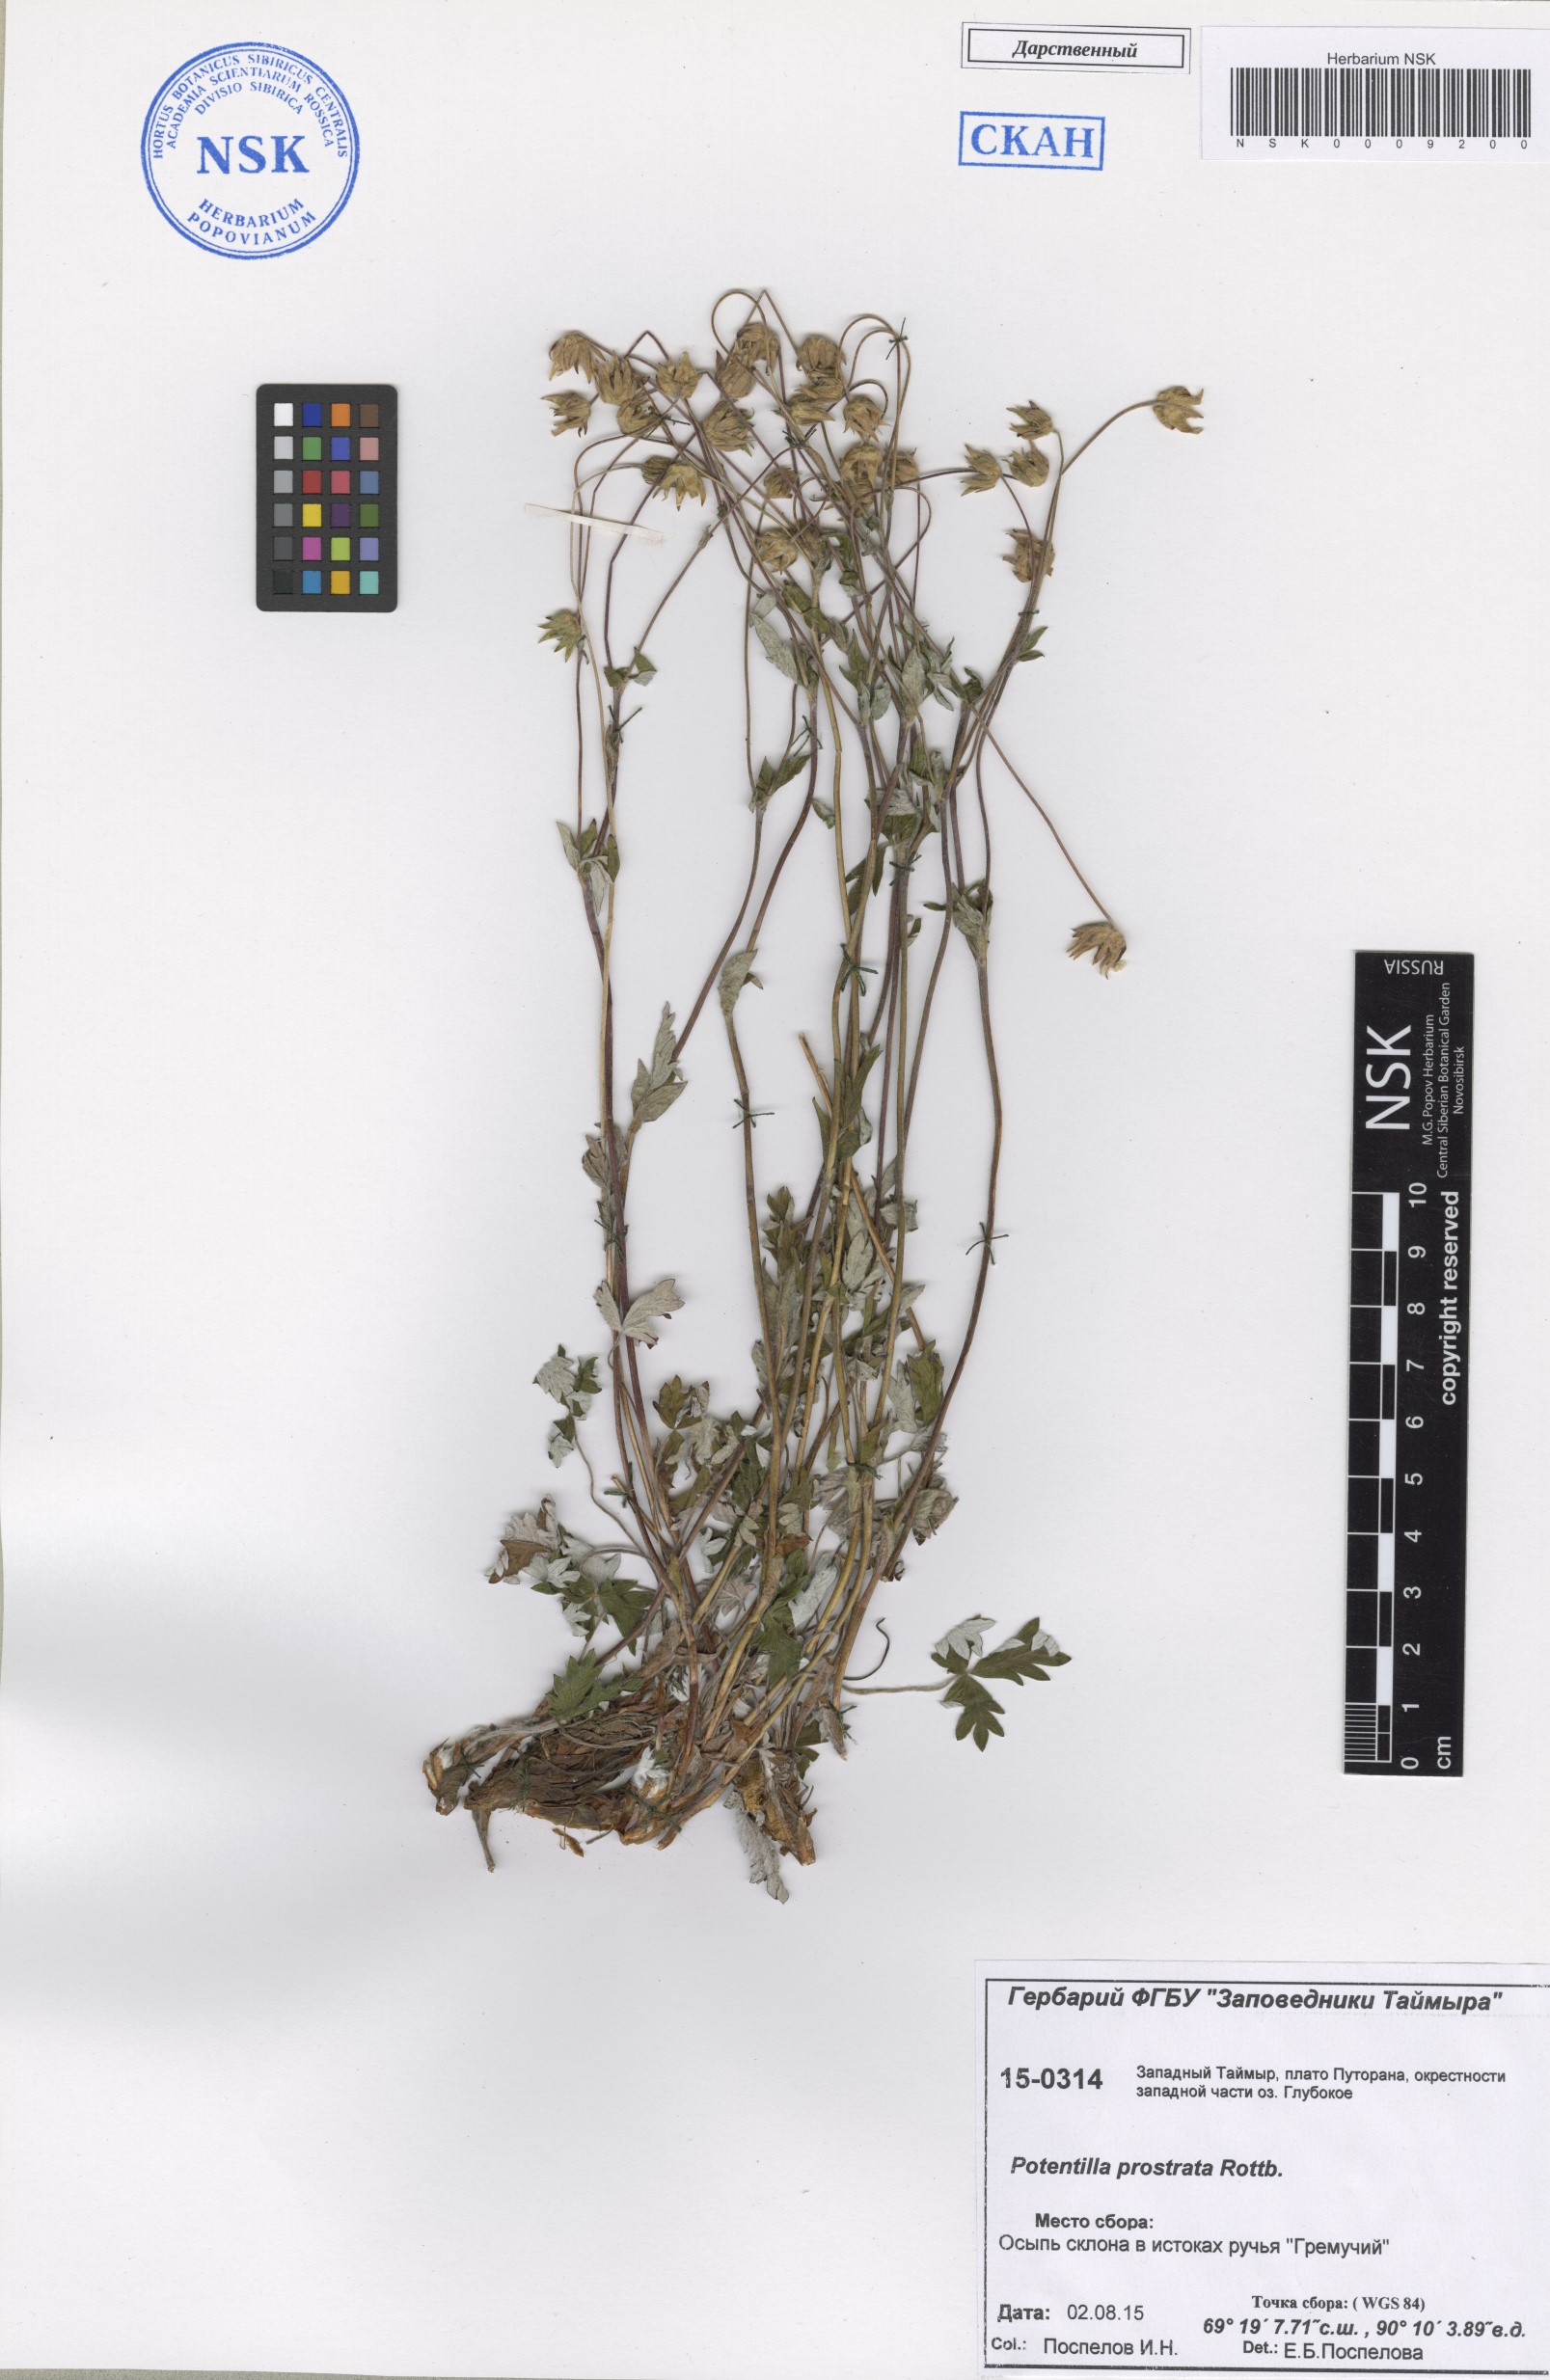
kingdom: Plantae
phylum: Tracheophyta
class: Magnoliopsida
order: Rosales
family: Rosaceae
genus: Potentilla
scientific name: Potentilla prostrata
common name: Prostrate cinquefoil
